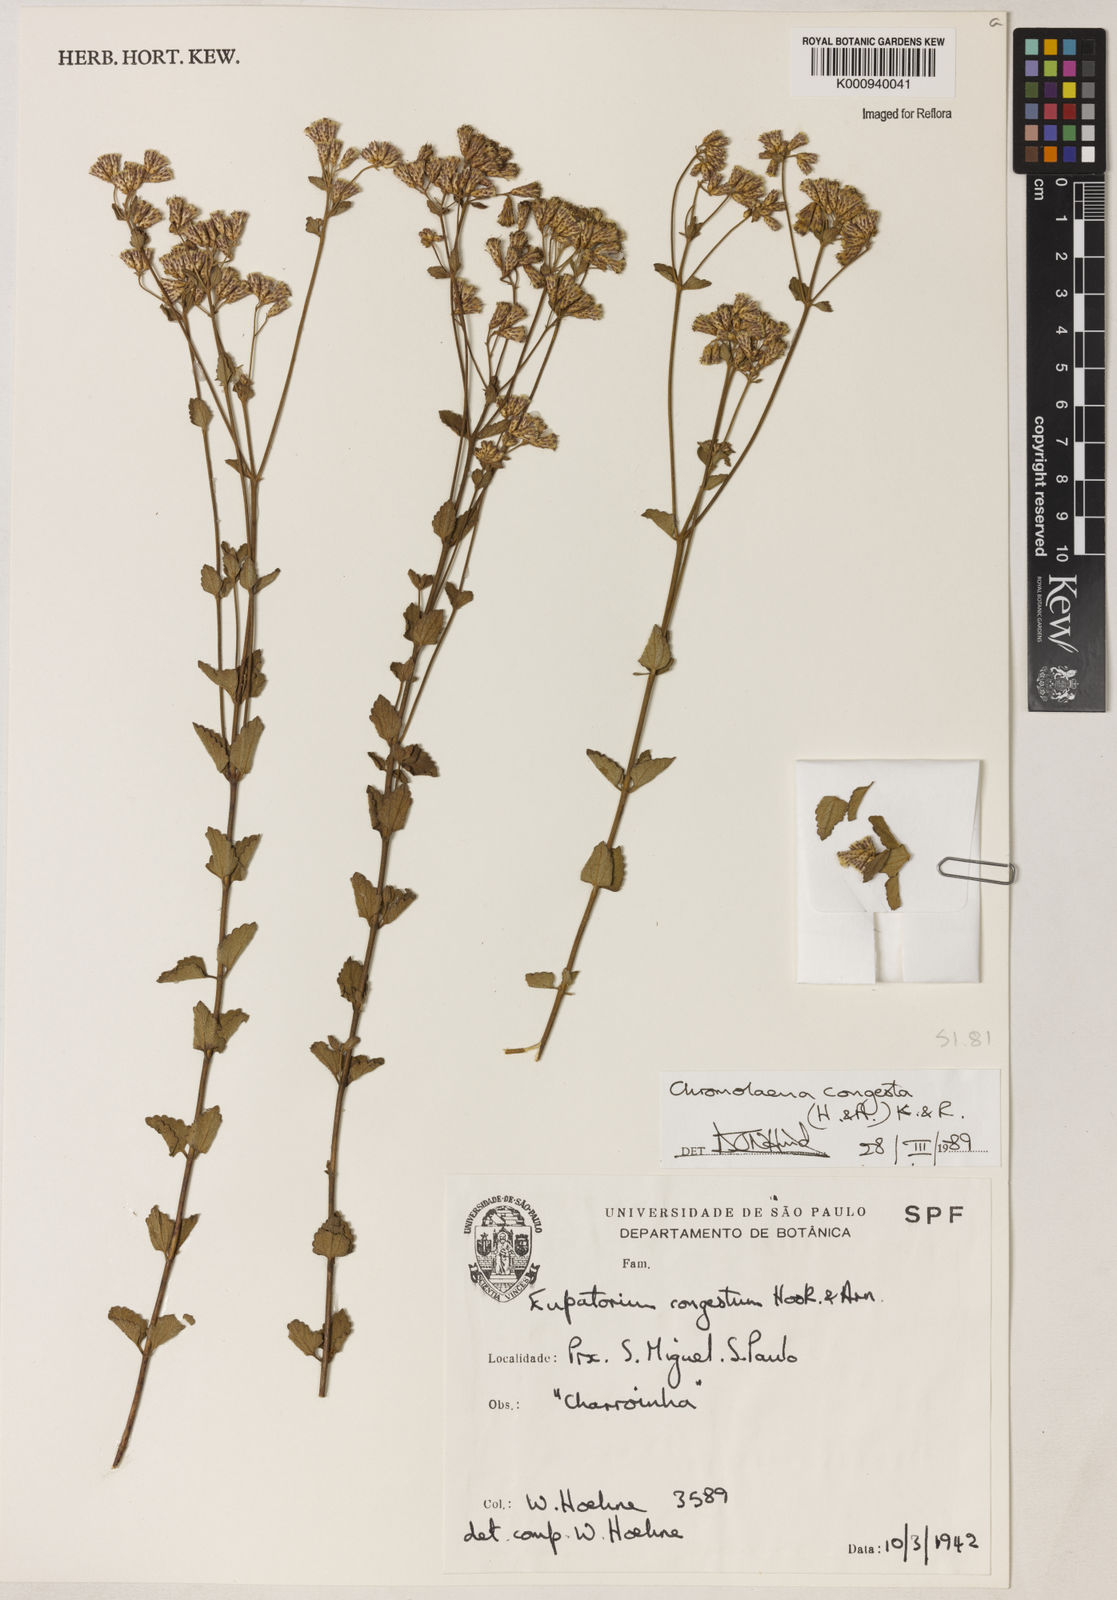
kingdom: Plantae
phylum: Tracheophyta
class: Magnoliopsida
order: Asterales
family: Asteraceae
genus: Chromolaena
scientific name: Chromolaena congesta
